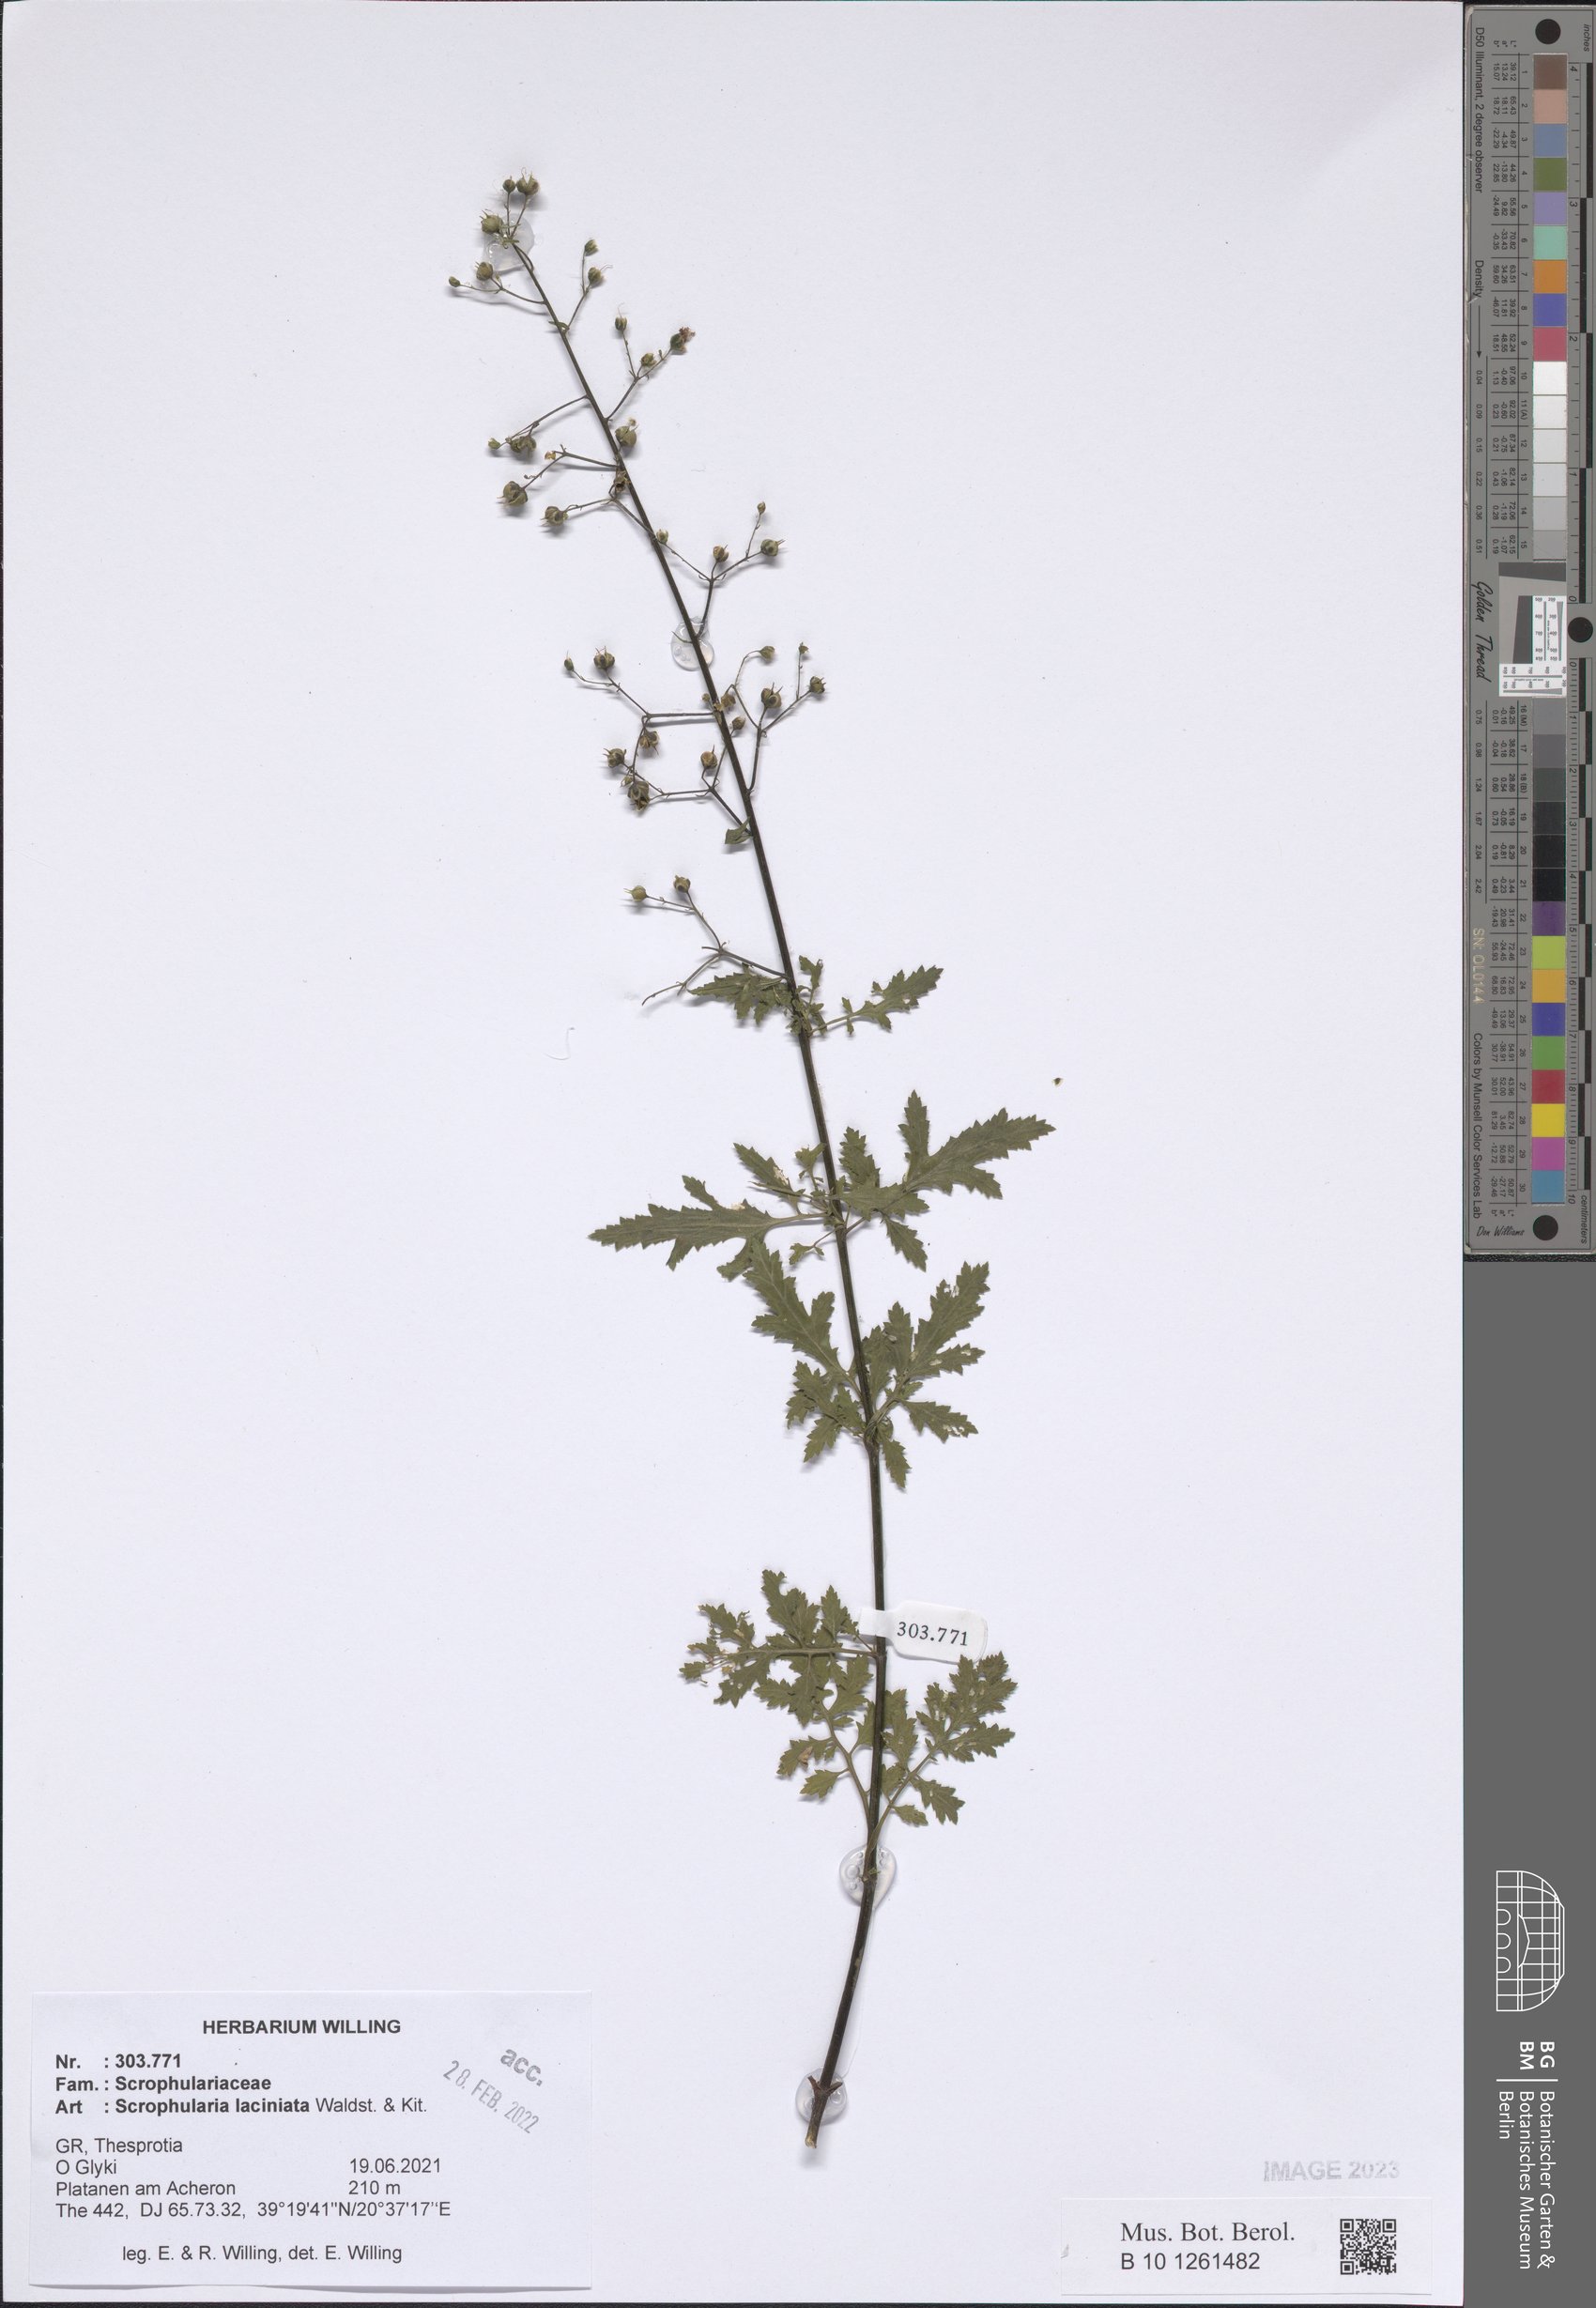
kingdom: Plantae
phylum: Tracheophyta
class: Magnoliopsida
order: Lamiales
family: Scrophulariaceae
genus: Scrophularia
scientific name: Scrophularia laciniata
